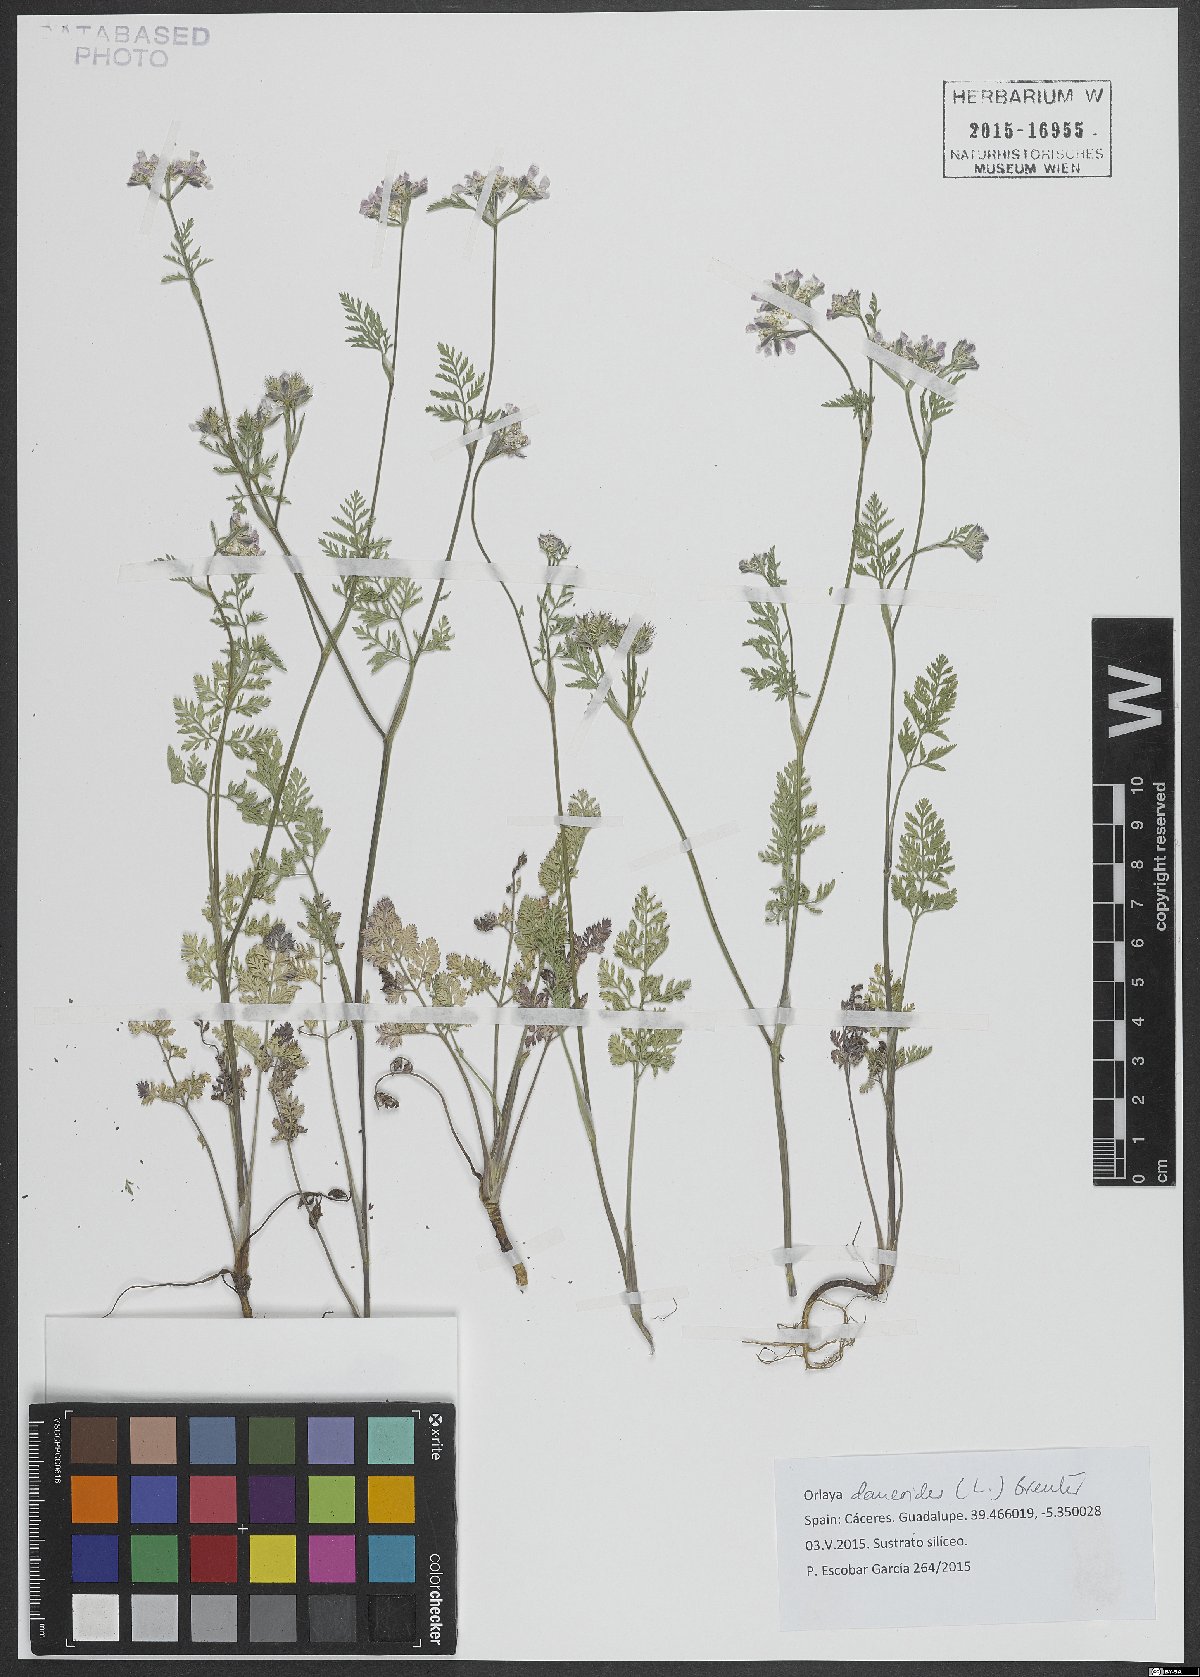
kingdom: Plantae
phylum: Tracheophyta
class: Magnoliopsida
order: Apiales
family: Apiaceae
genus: Orlaya
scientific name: Orlaya daucoides
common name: Flat-fruit orlaya
